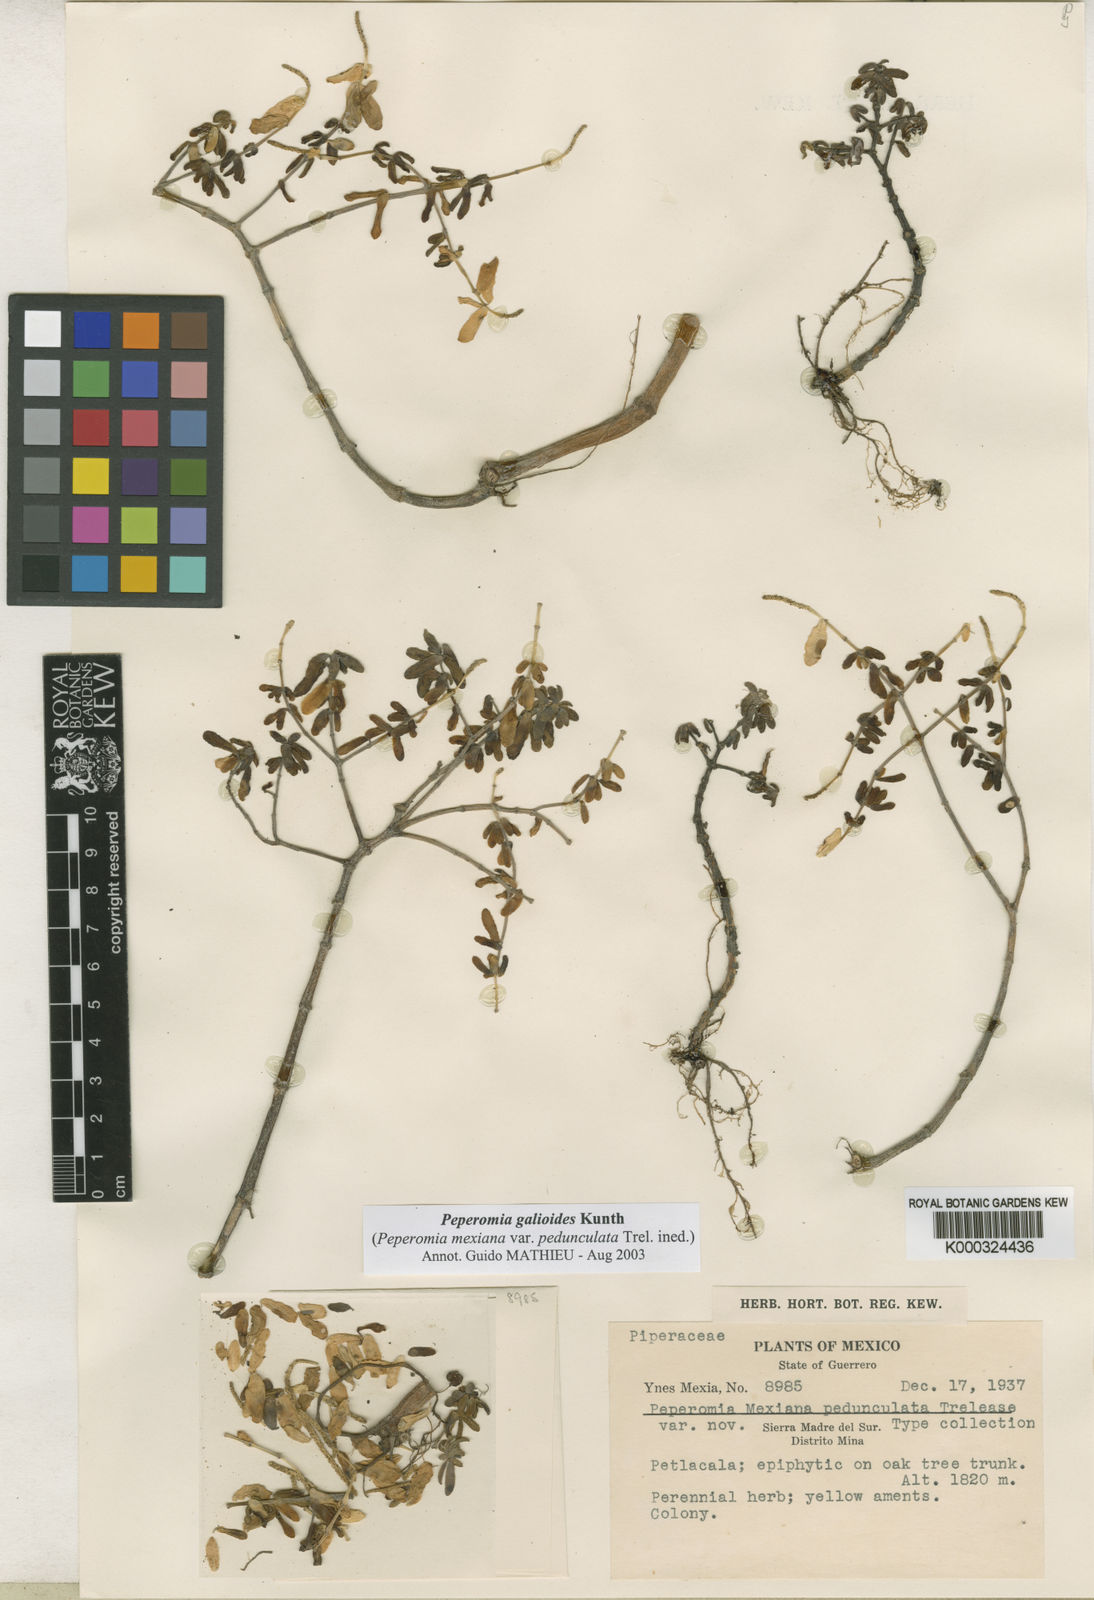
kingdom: Plantae
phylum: Tracheophyta
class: Magnoliopsida
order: Piperales
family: Piperaceae
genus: Peperomia
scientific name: Peperomia galioides
